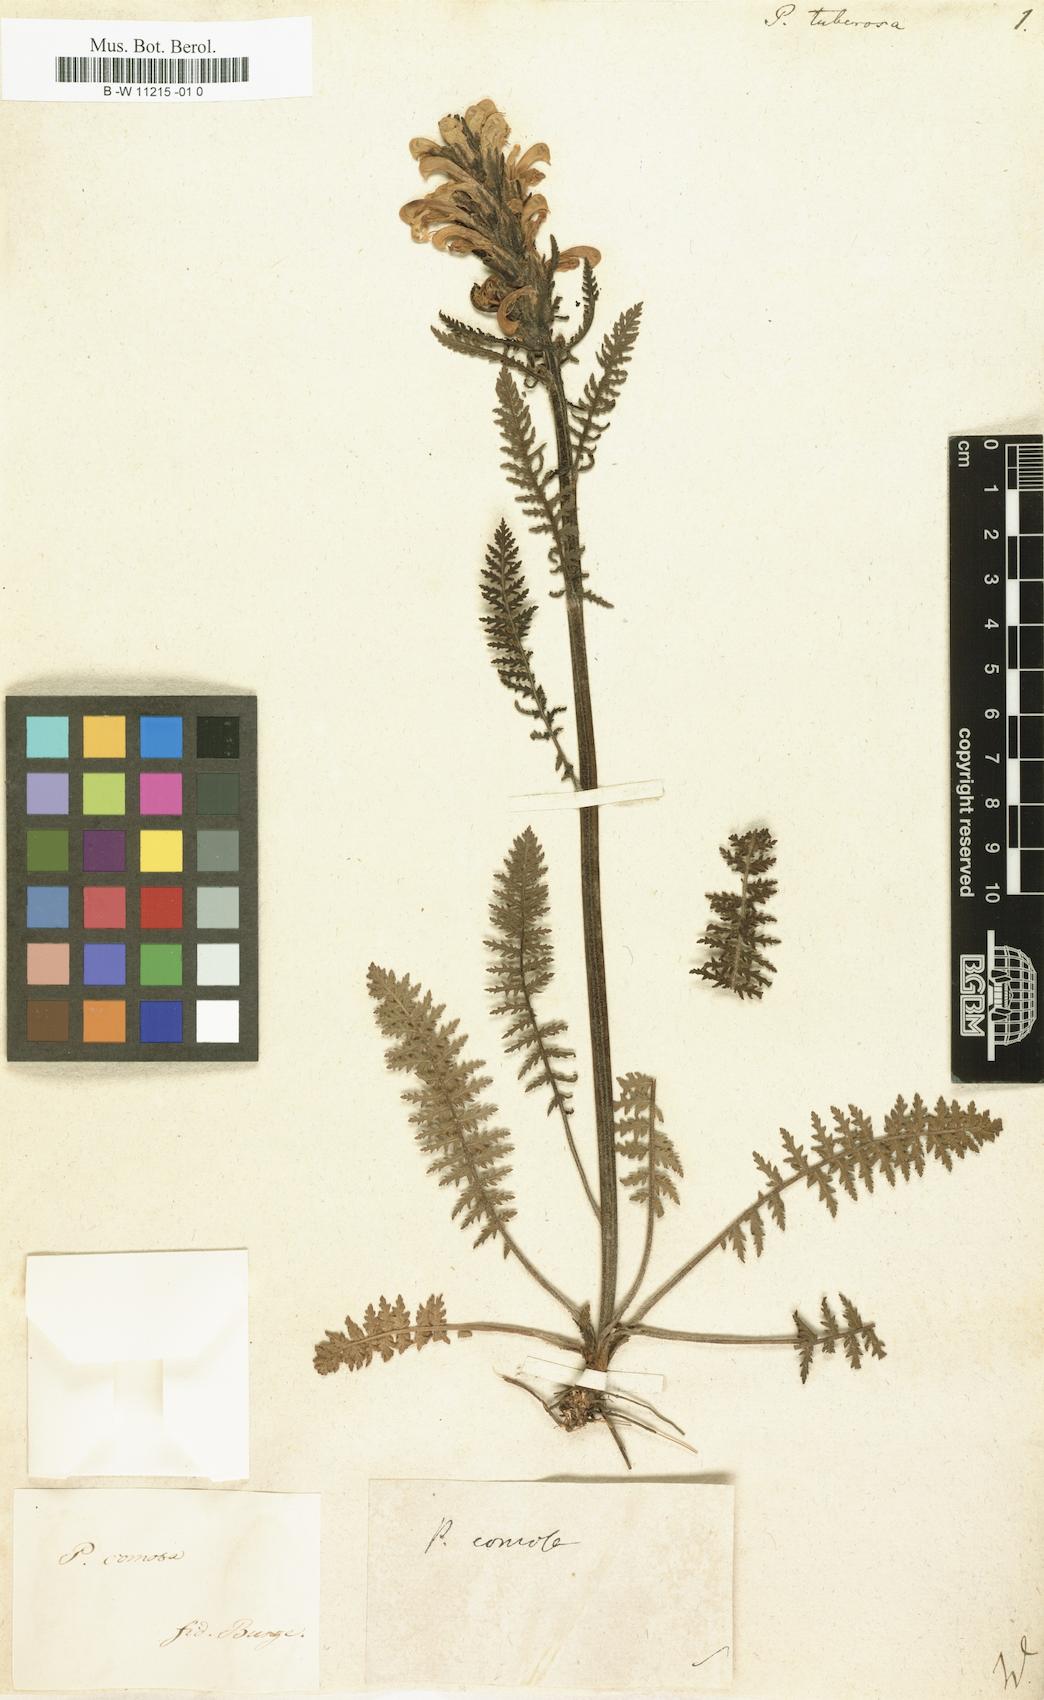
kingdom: Plantae
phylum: Tracheophyta
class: Magnoliopsida
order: Lamiales
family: Orobanchaceae
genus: Pedicularis
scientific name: Pedicularis tuberosa
